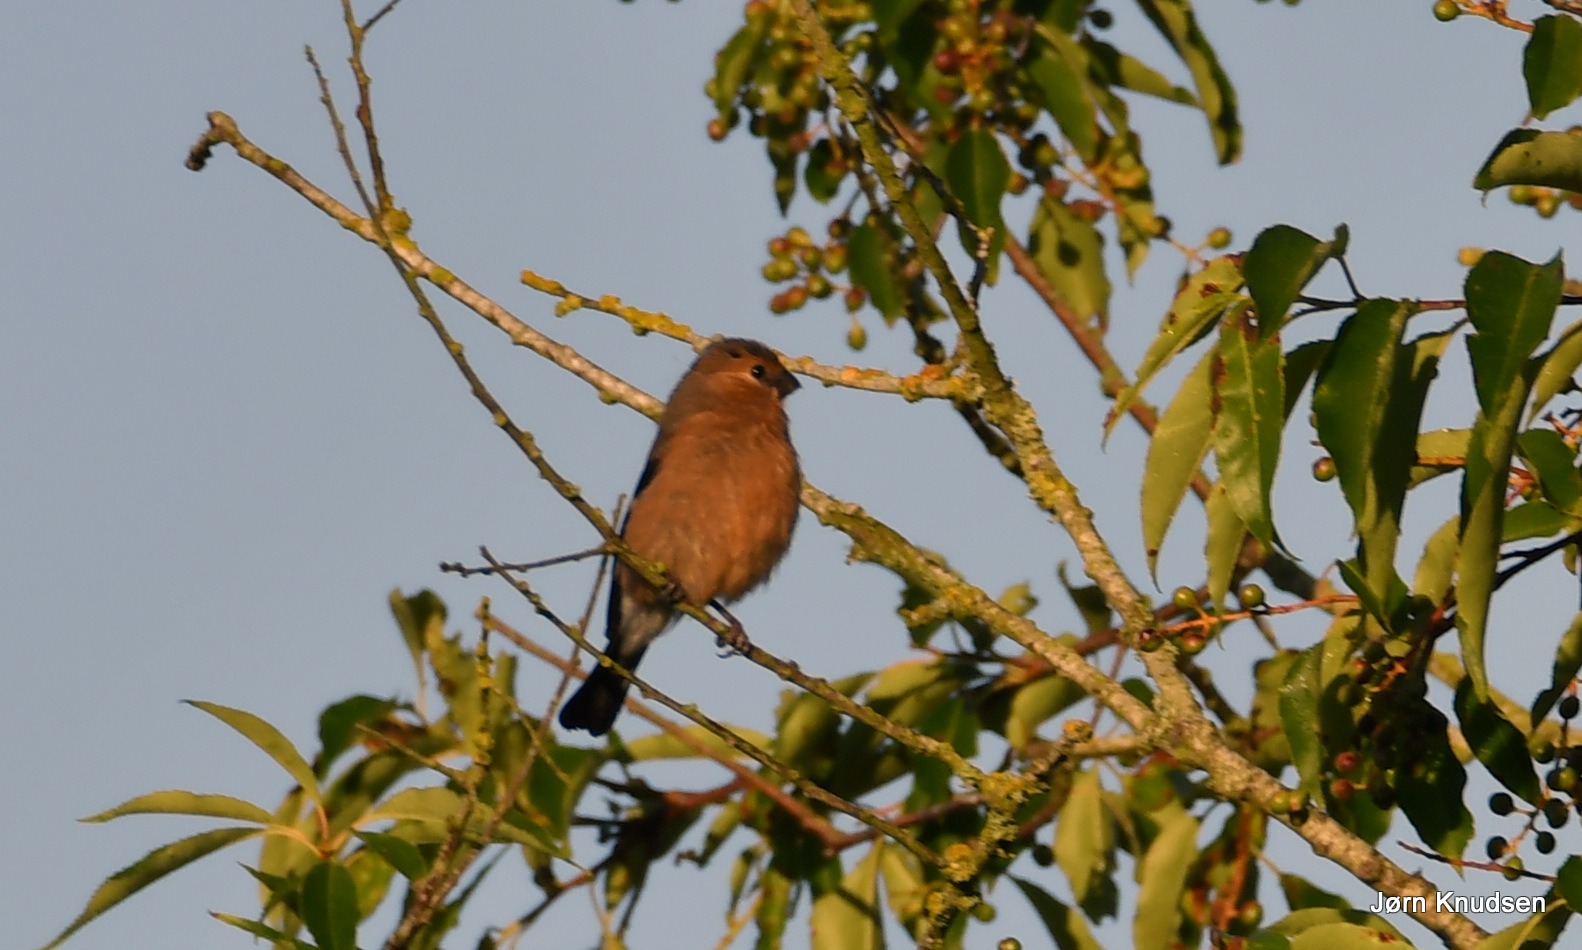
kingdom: Animalia
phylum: Chordata
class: Aves
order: Passeriformes
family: Fringillidae
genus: Pyrrhula
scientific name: Pyrrhula pyrrhula
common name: Dompap
